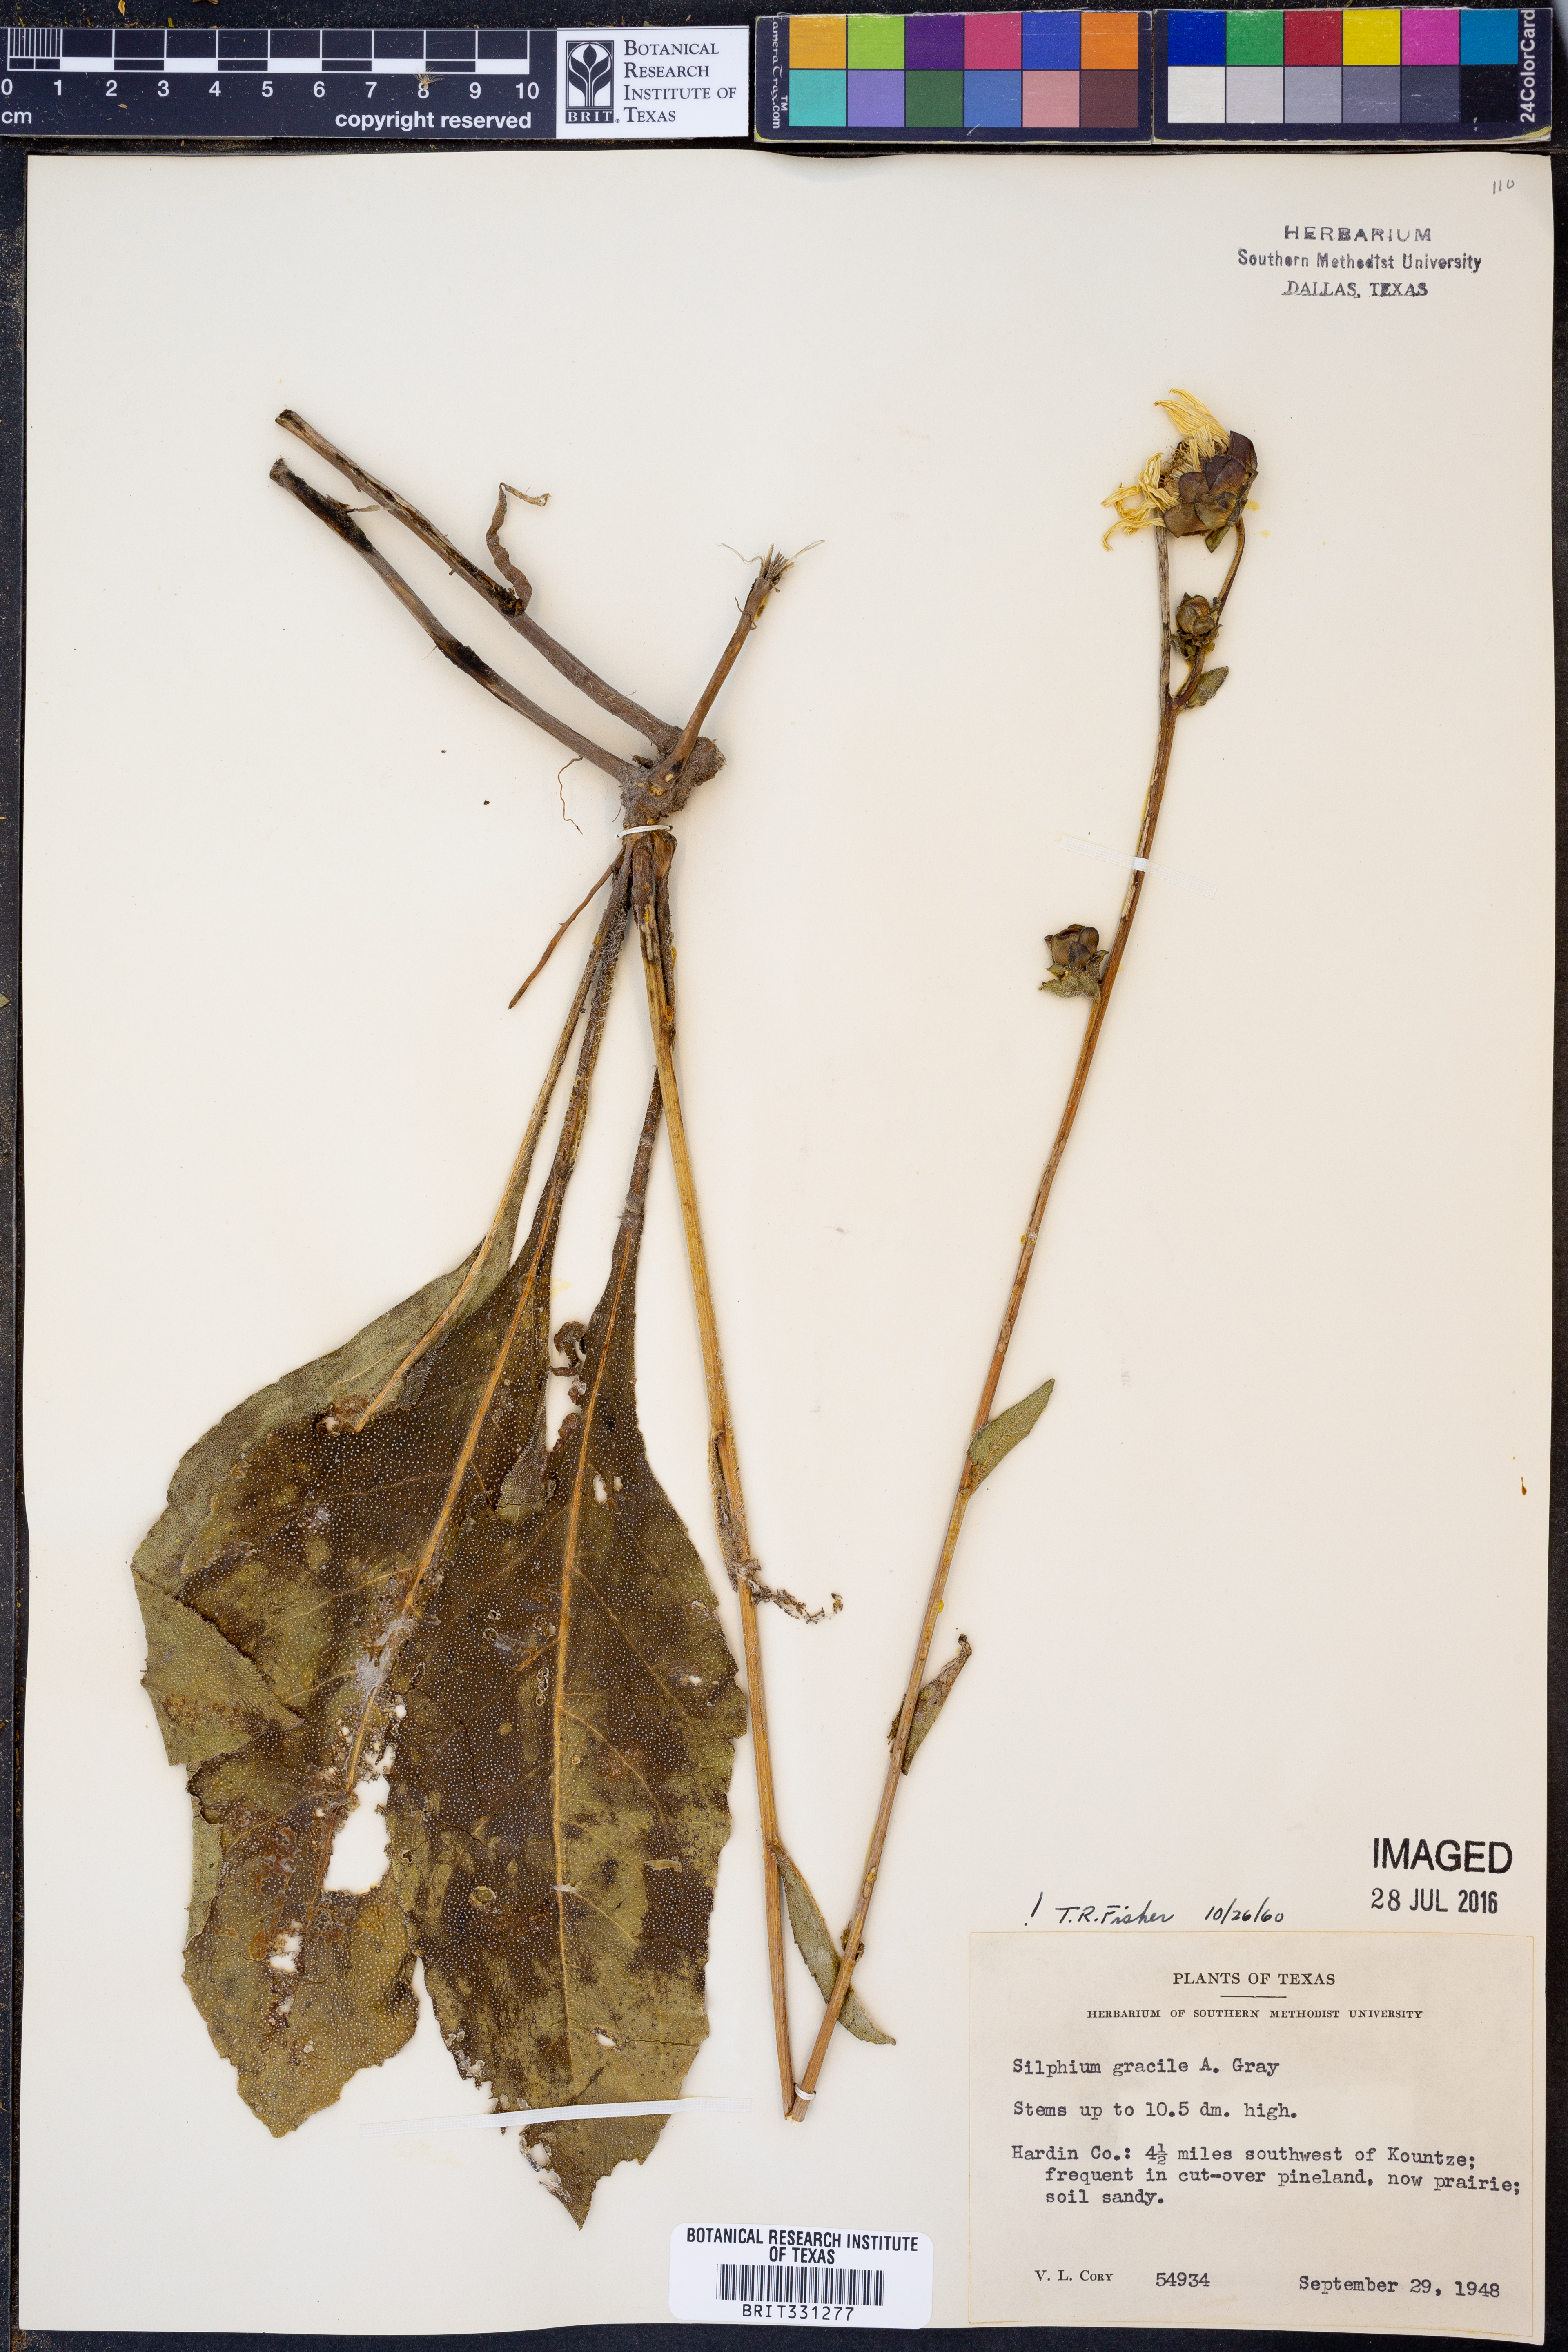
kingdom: Plantae
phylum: Tracheophyta
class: Magnoliopsida
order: Asterales
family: Asteraceae
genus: Silphium
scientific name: Silphium radula
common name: Roughleaf rosinweed
